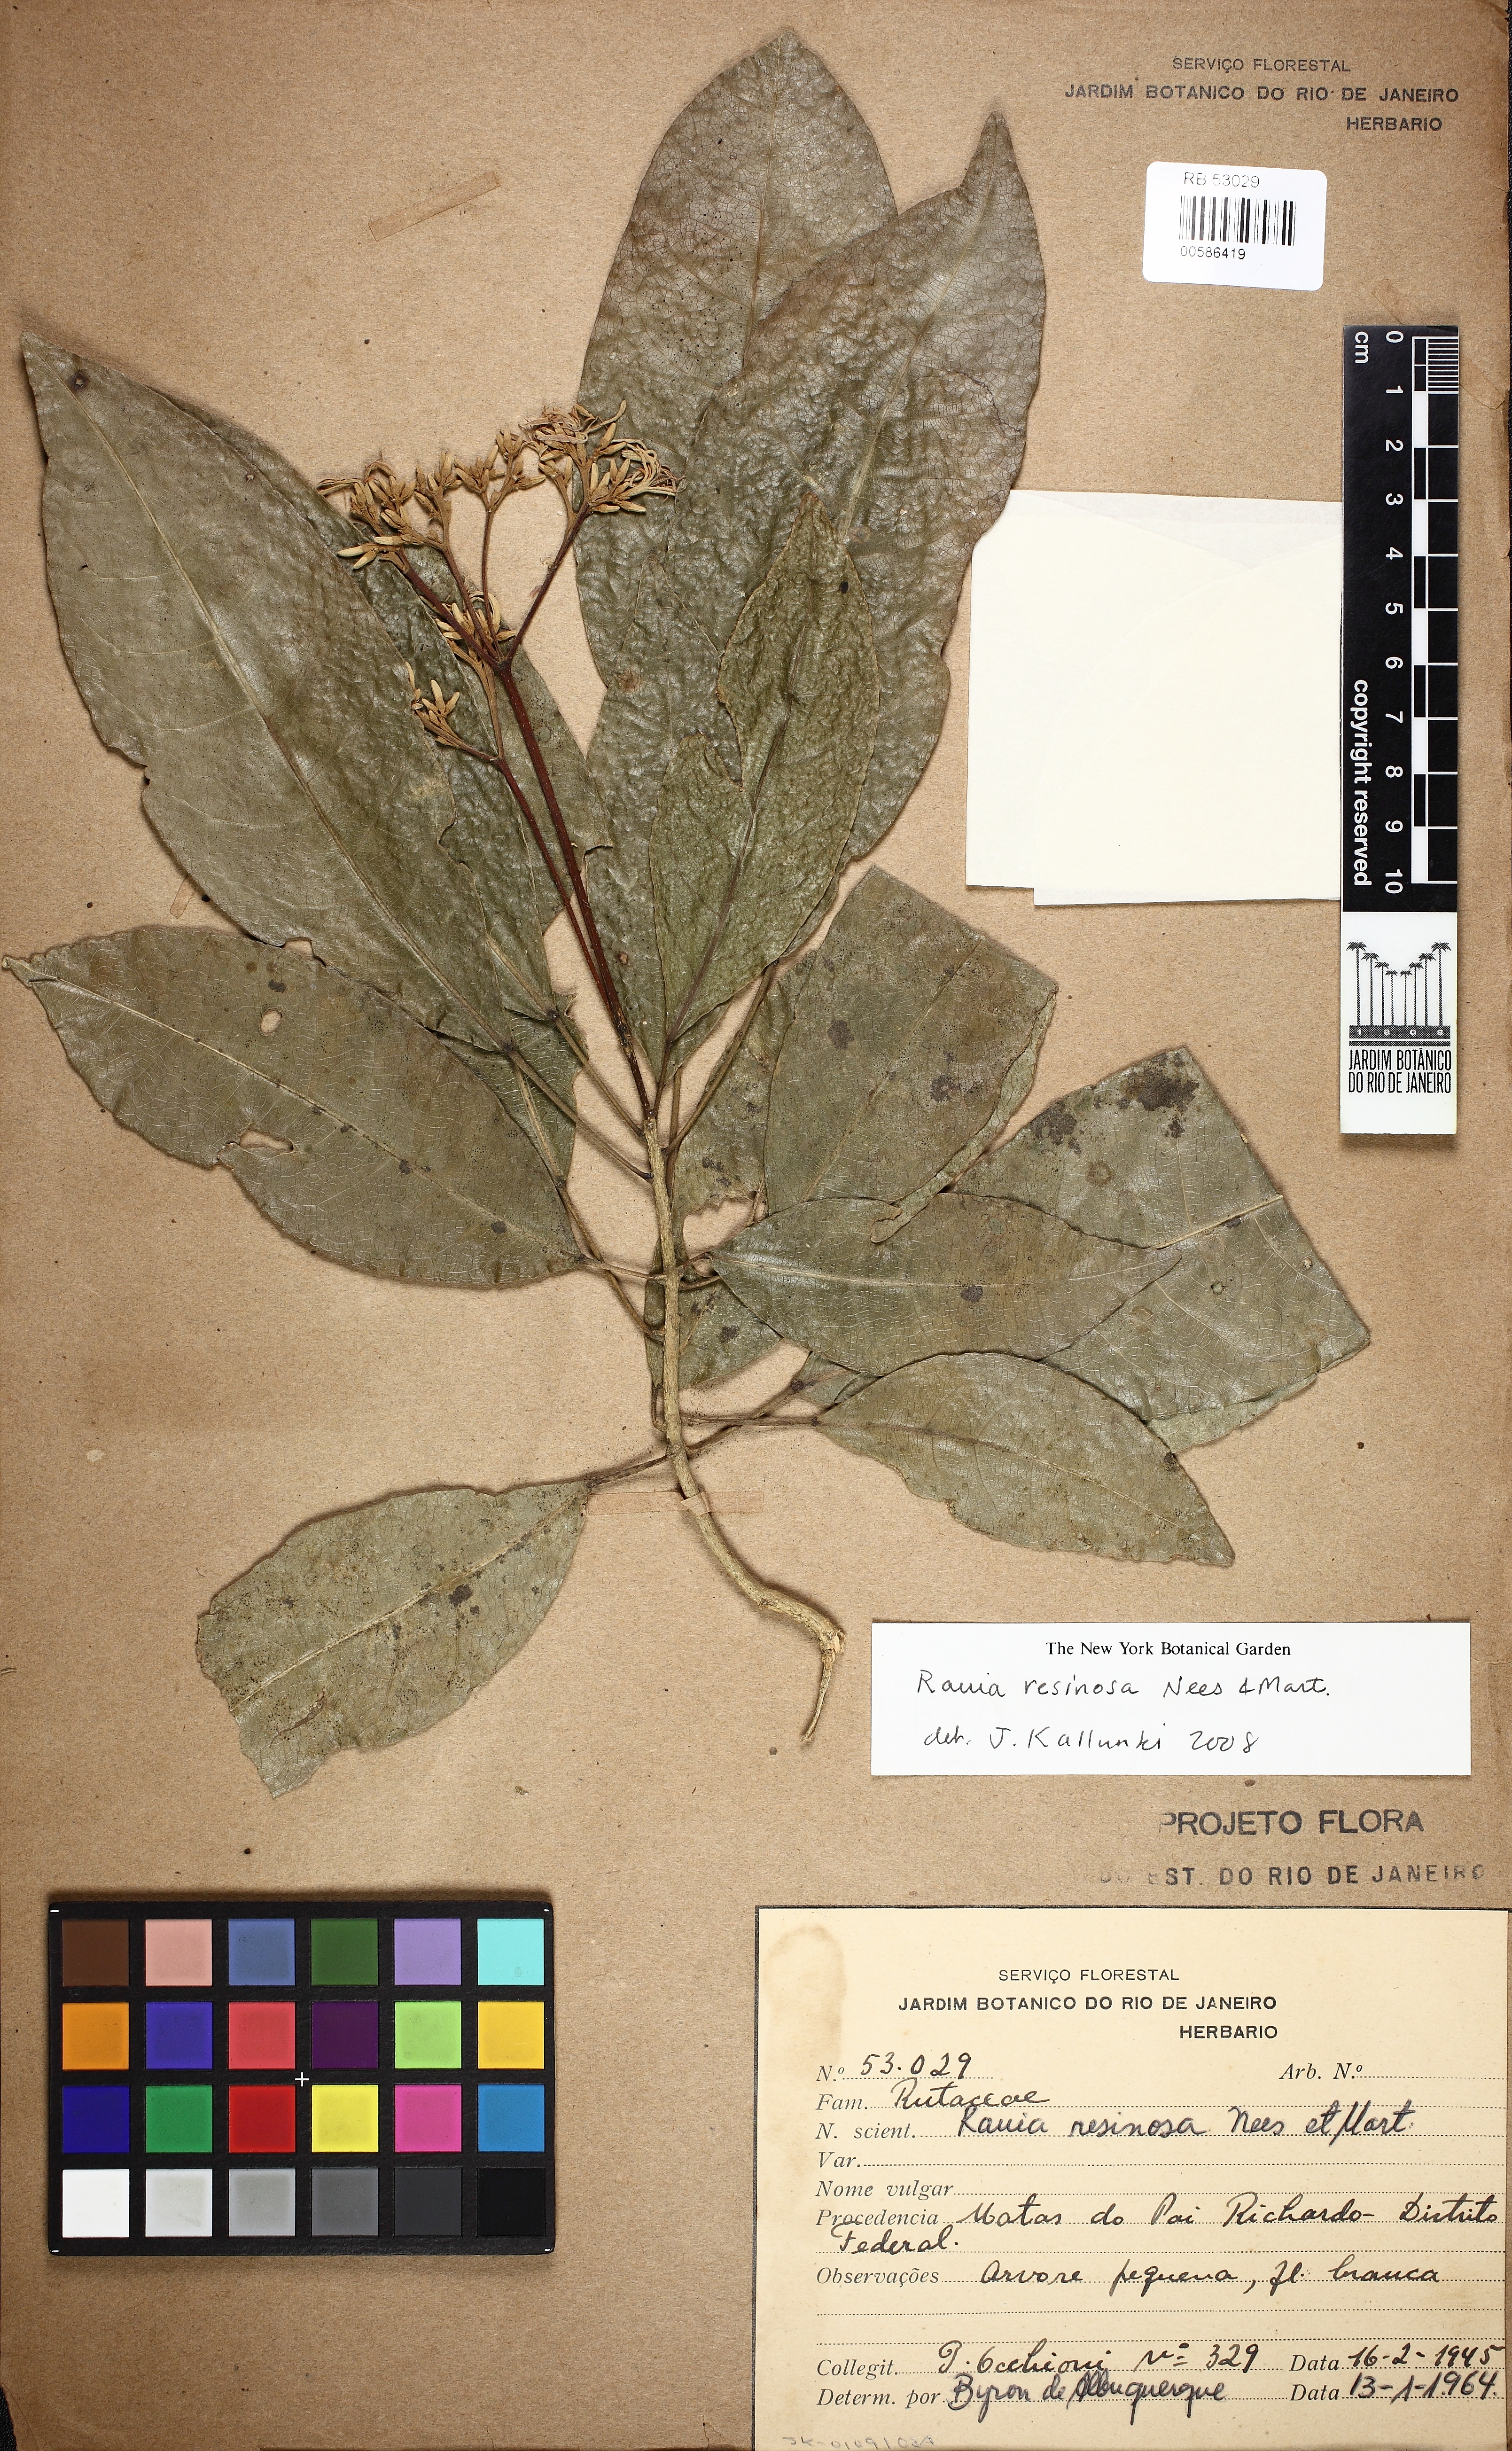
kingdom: Plantae
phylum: Tracheophyta
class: Magnoliopsida
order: Sapindales
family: Rutaceae
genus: Rauia
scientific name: Rauia resinosa
